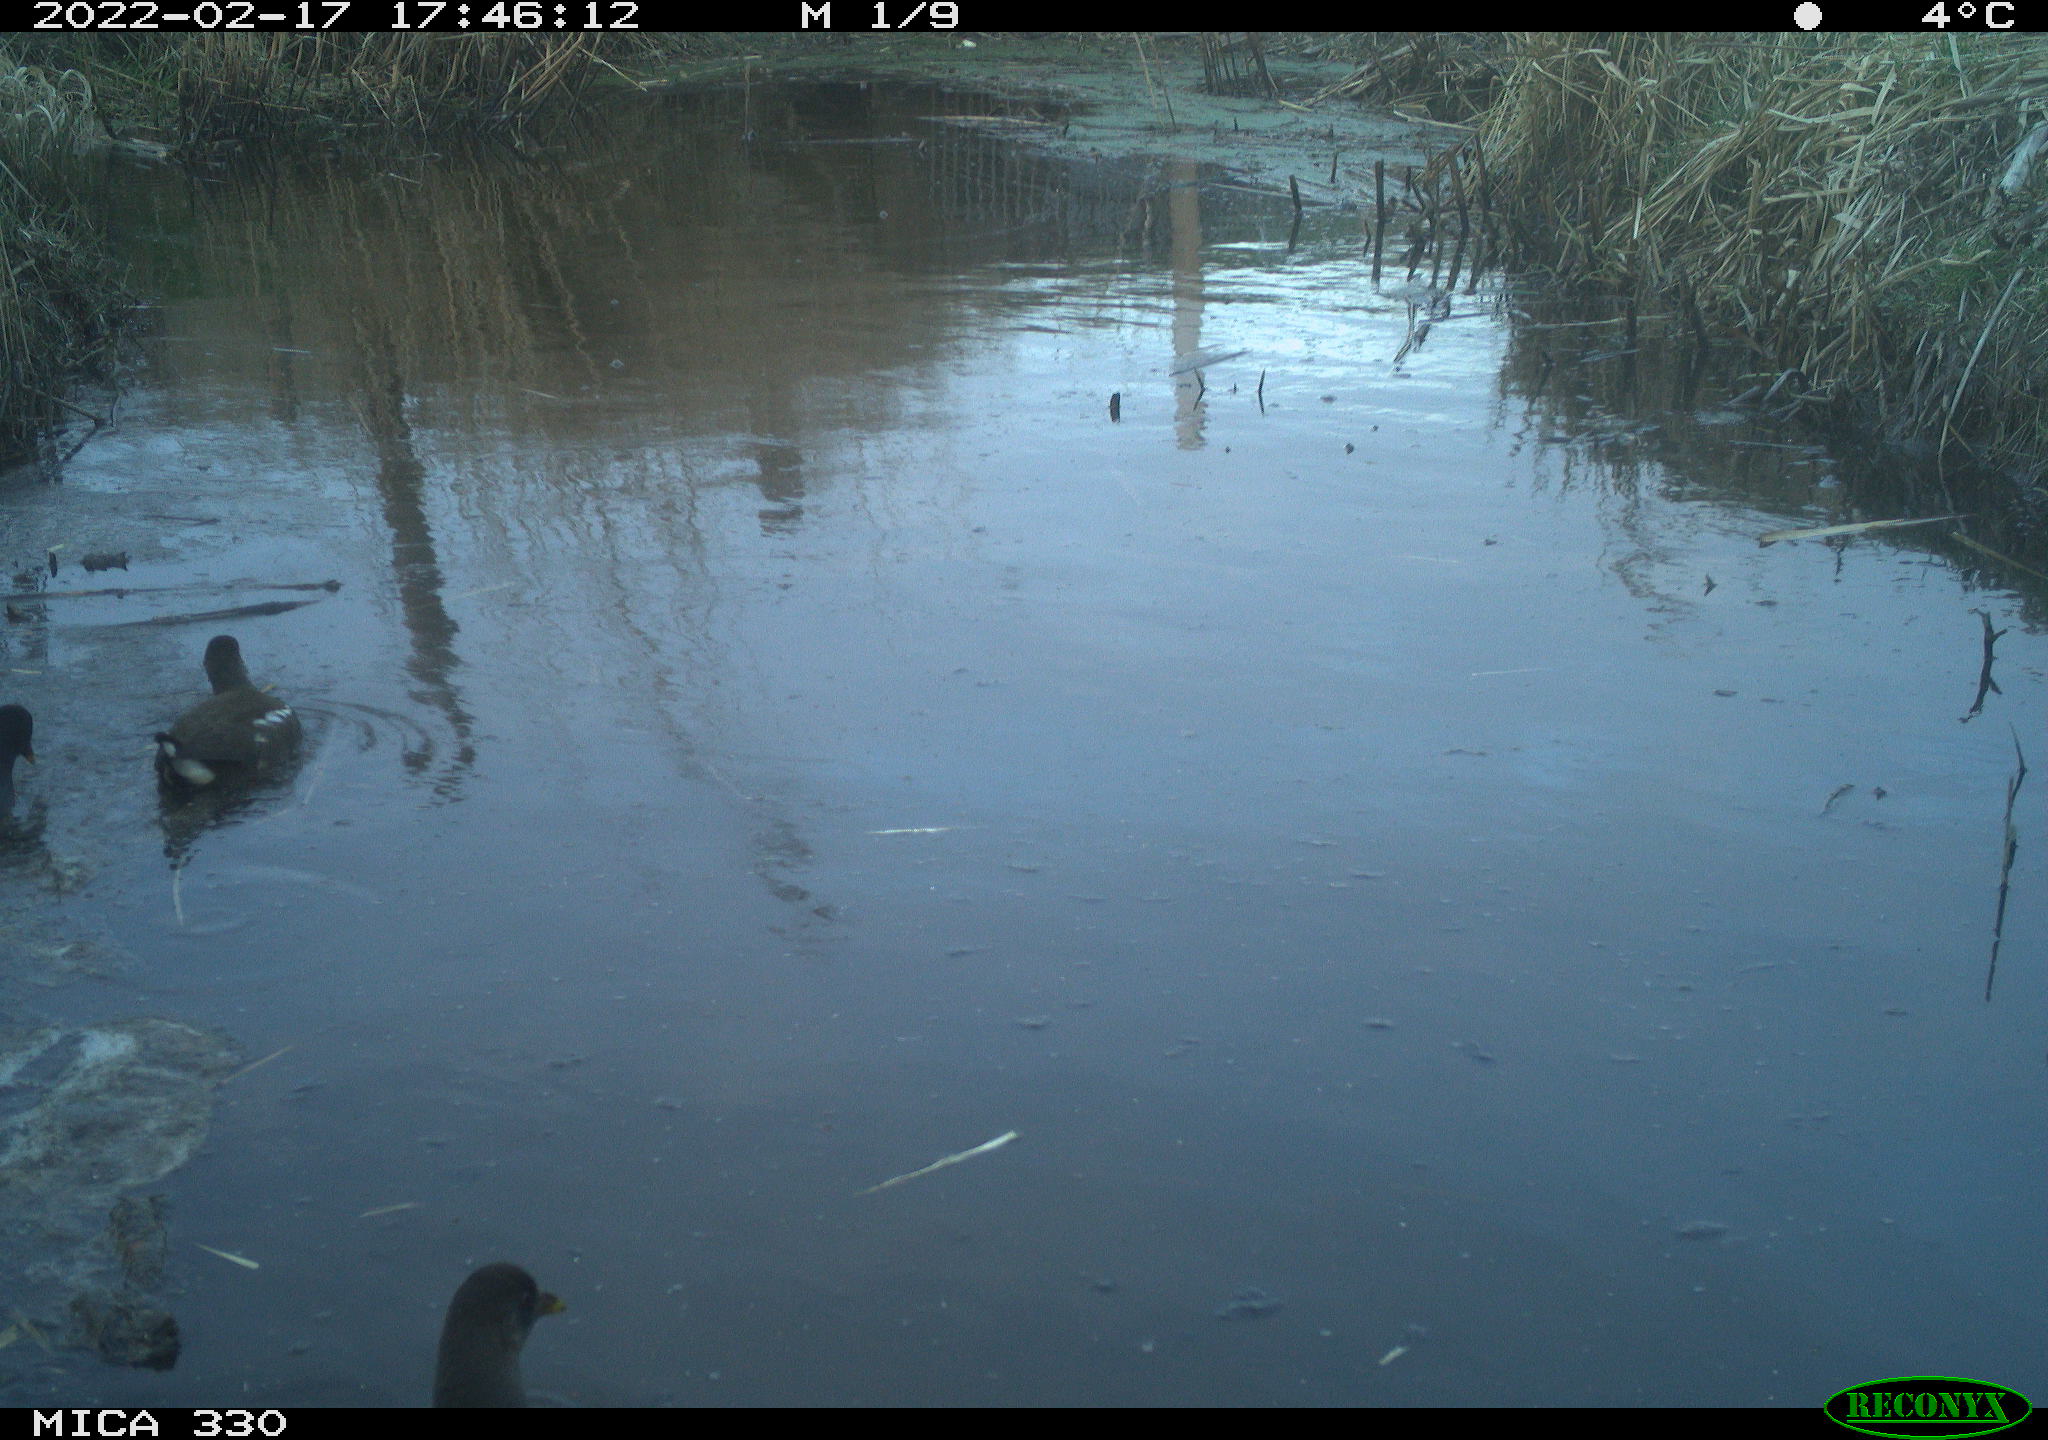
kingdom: Animalia
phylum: Chordata
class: Aves
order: Gruiformes
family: Rallidae
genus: Gallinula
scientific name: Gallinula chloropus
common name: Common moorhen
